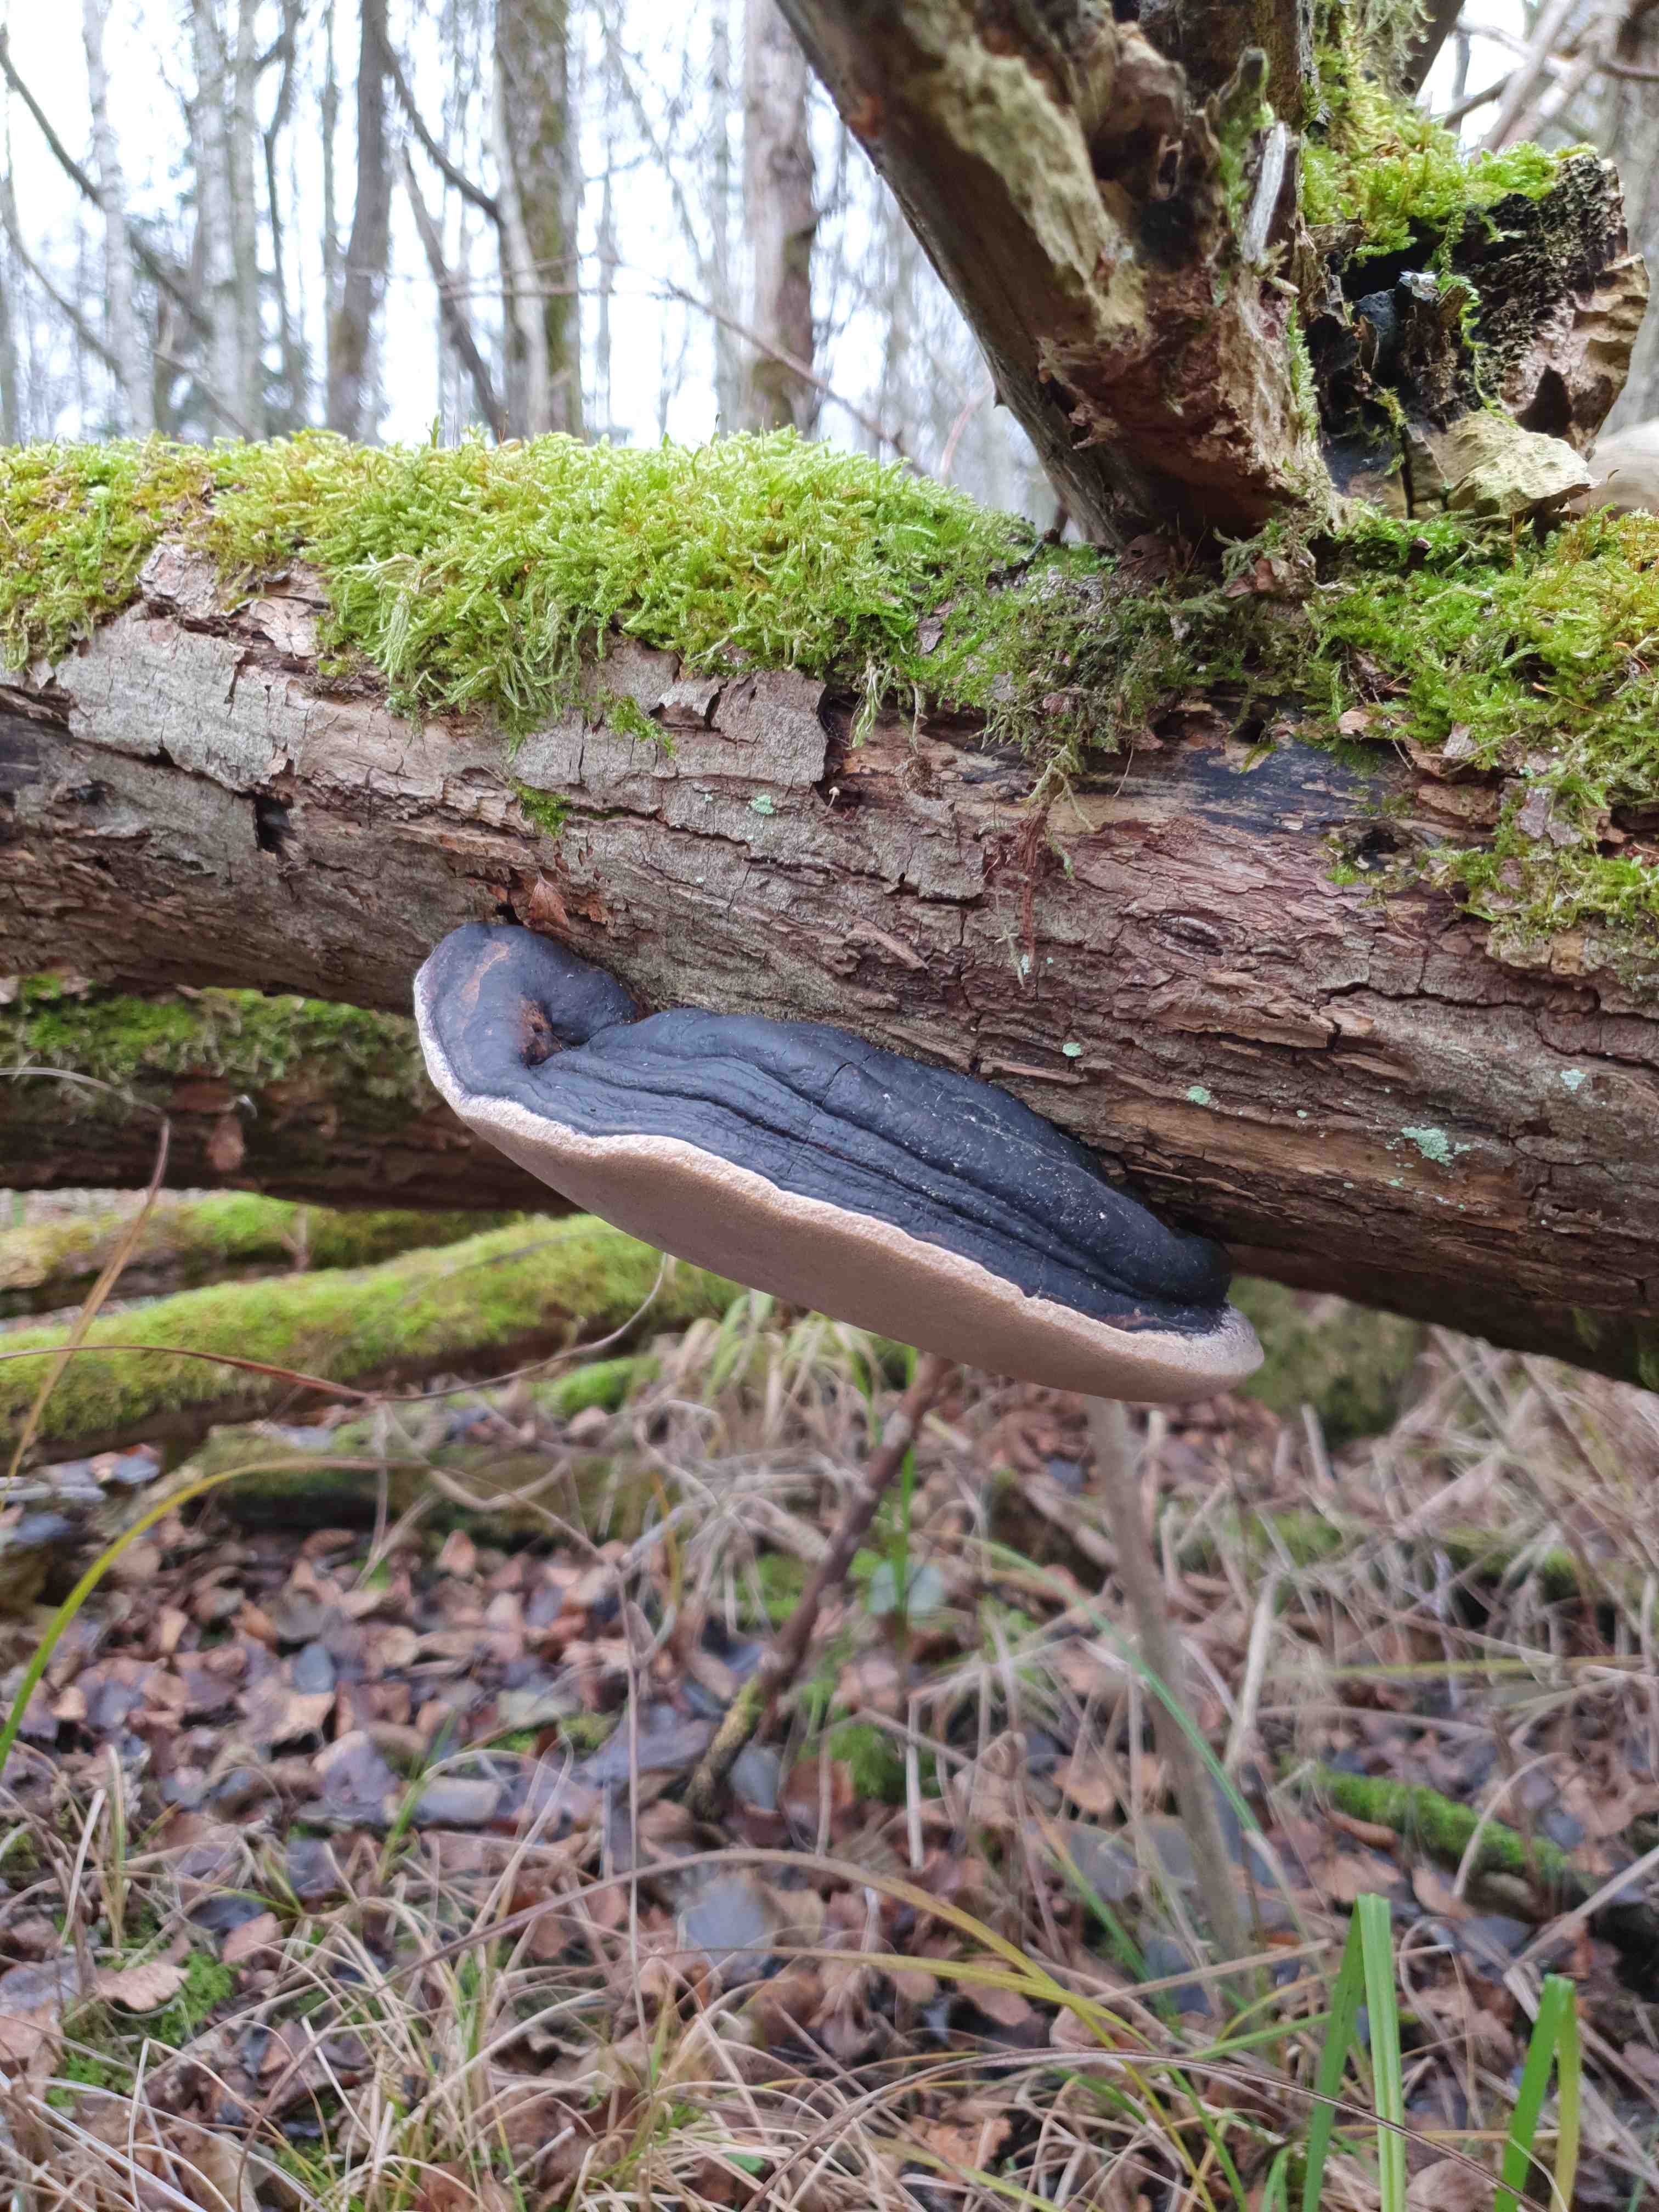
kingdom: Fungi
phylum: Basidiomycota
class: Agaricomycetes
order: Hymenochaetales
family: Hymenochaetaceae
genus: Phellinus
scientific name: Phellinus igniarius
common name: almindelig ildporesvamp
